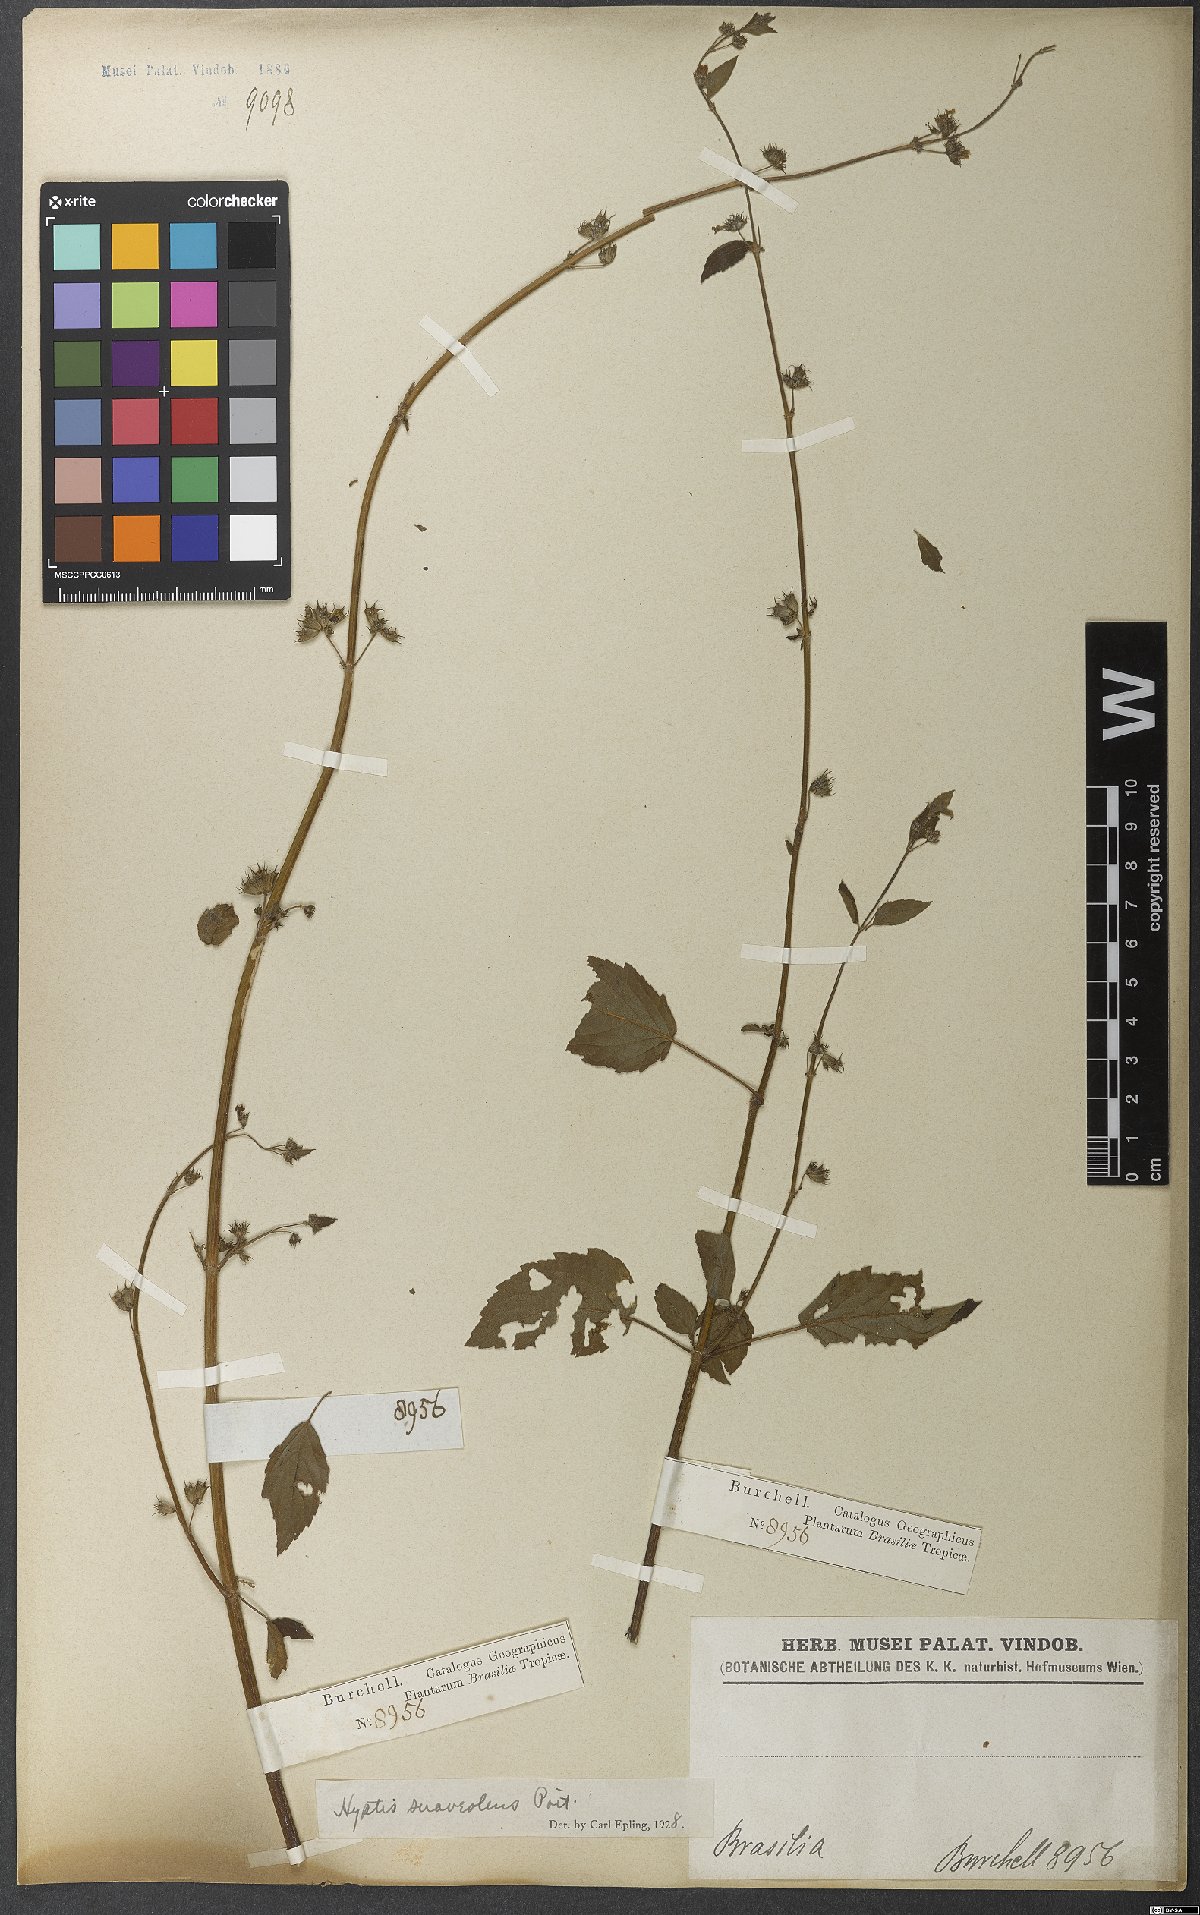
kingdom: Plantae
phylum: Tracheophyta
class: Magnoliopsida
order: Lamiales
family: Lamiaceae
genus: Mesosphaerum
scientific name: Mesosphaerum suaveolens
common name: Pignut
